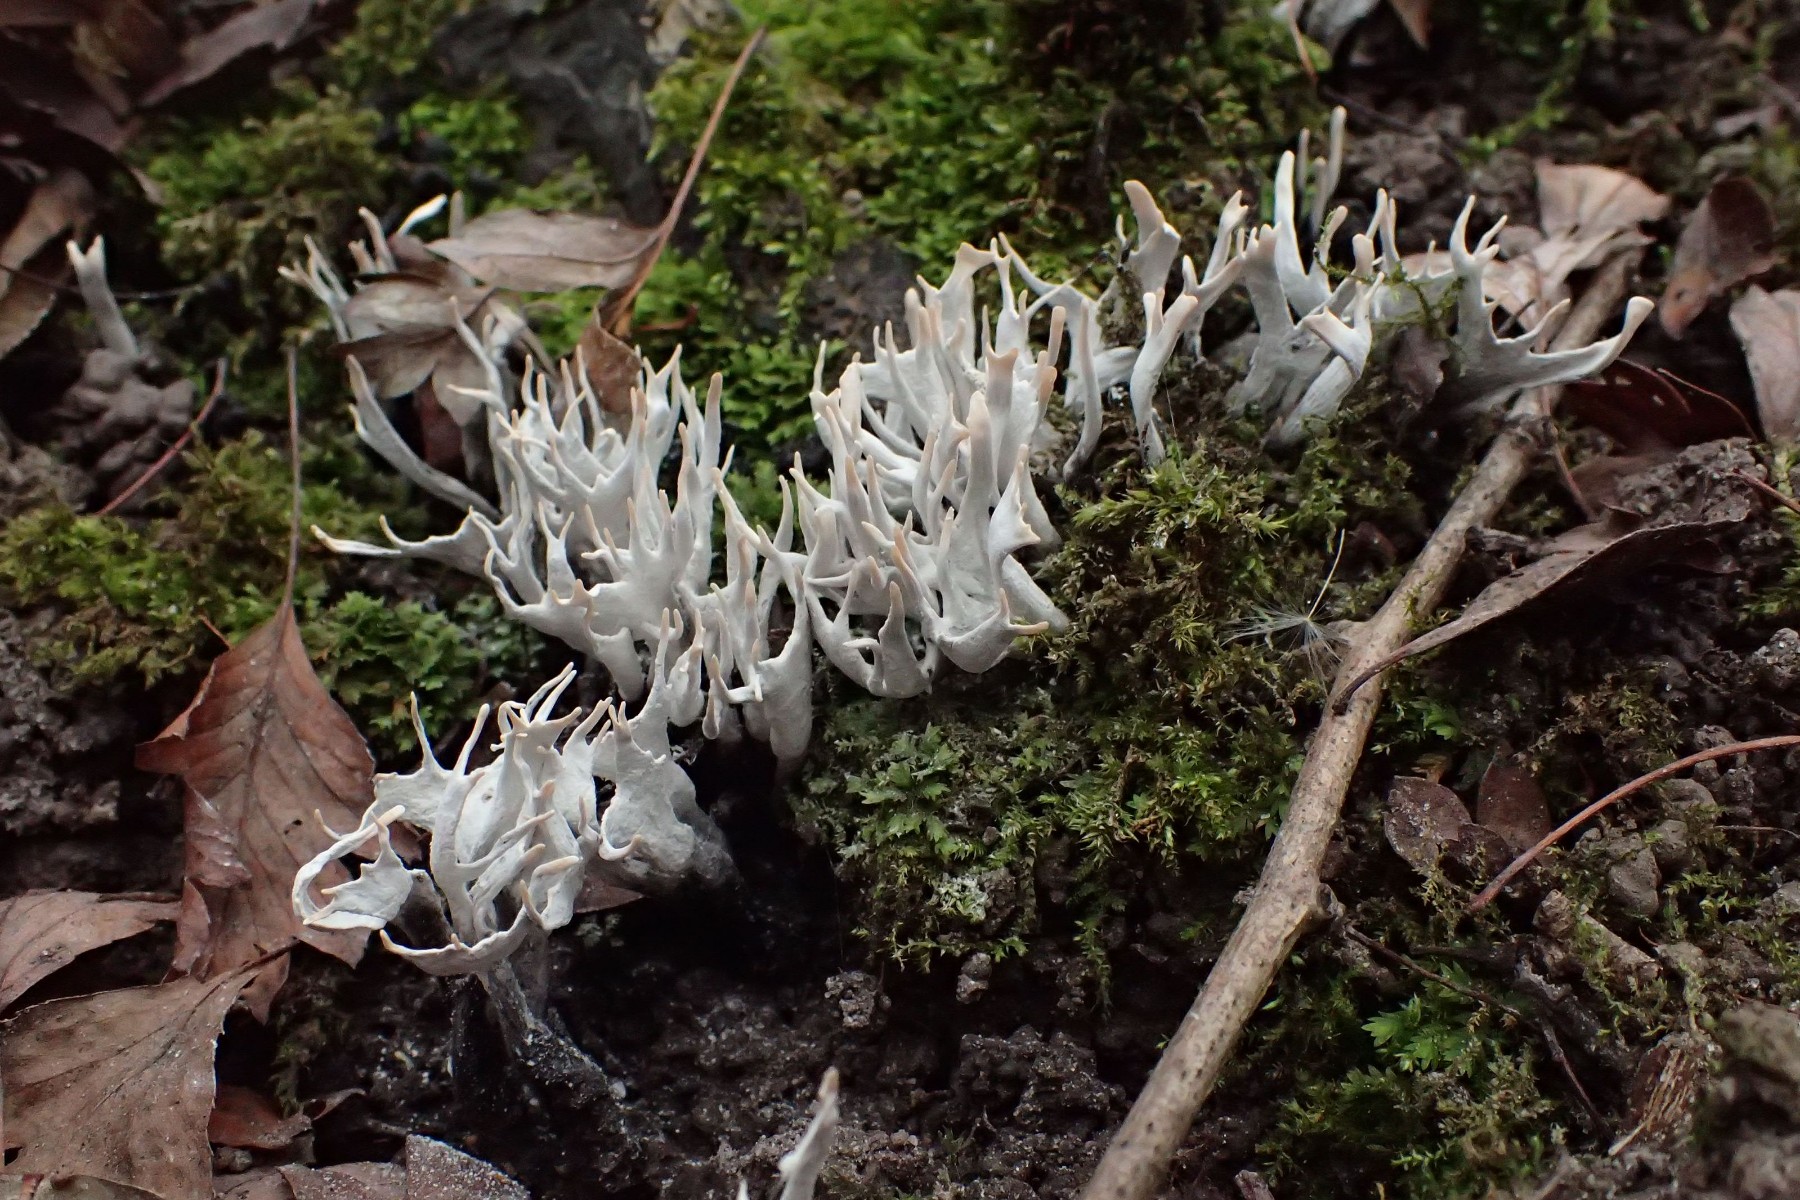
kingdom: Fungi
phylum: Ascomycota
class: Sordariomycetes
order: Xylariales
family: Xylariaceae
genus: Xylaria
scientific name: Xylaria hypoxylon
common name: grenet stødsvamp
